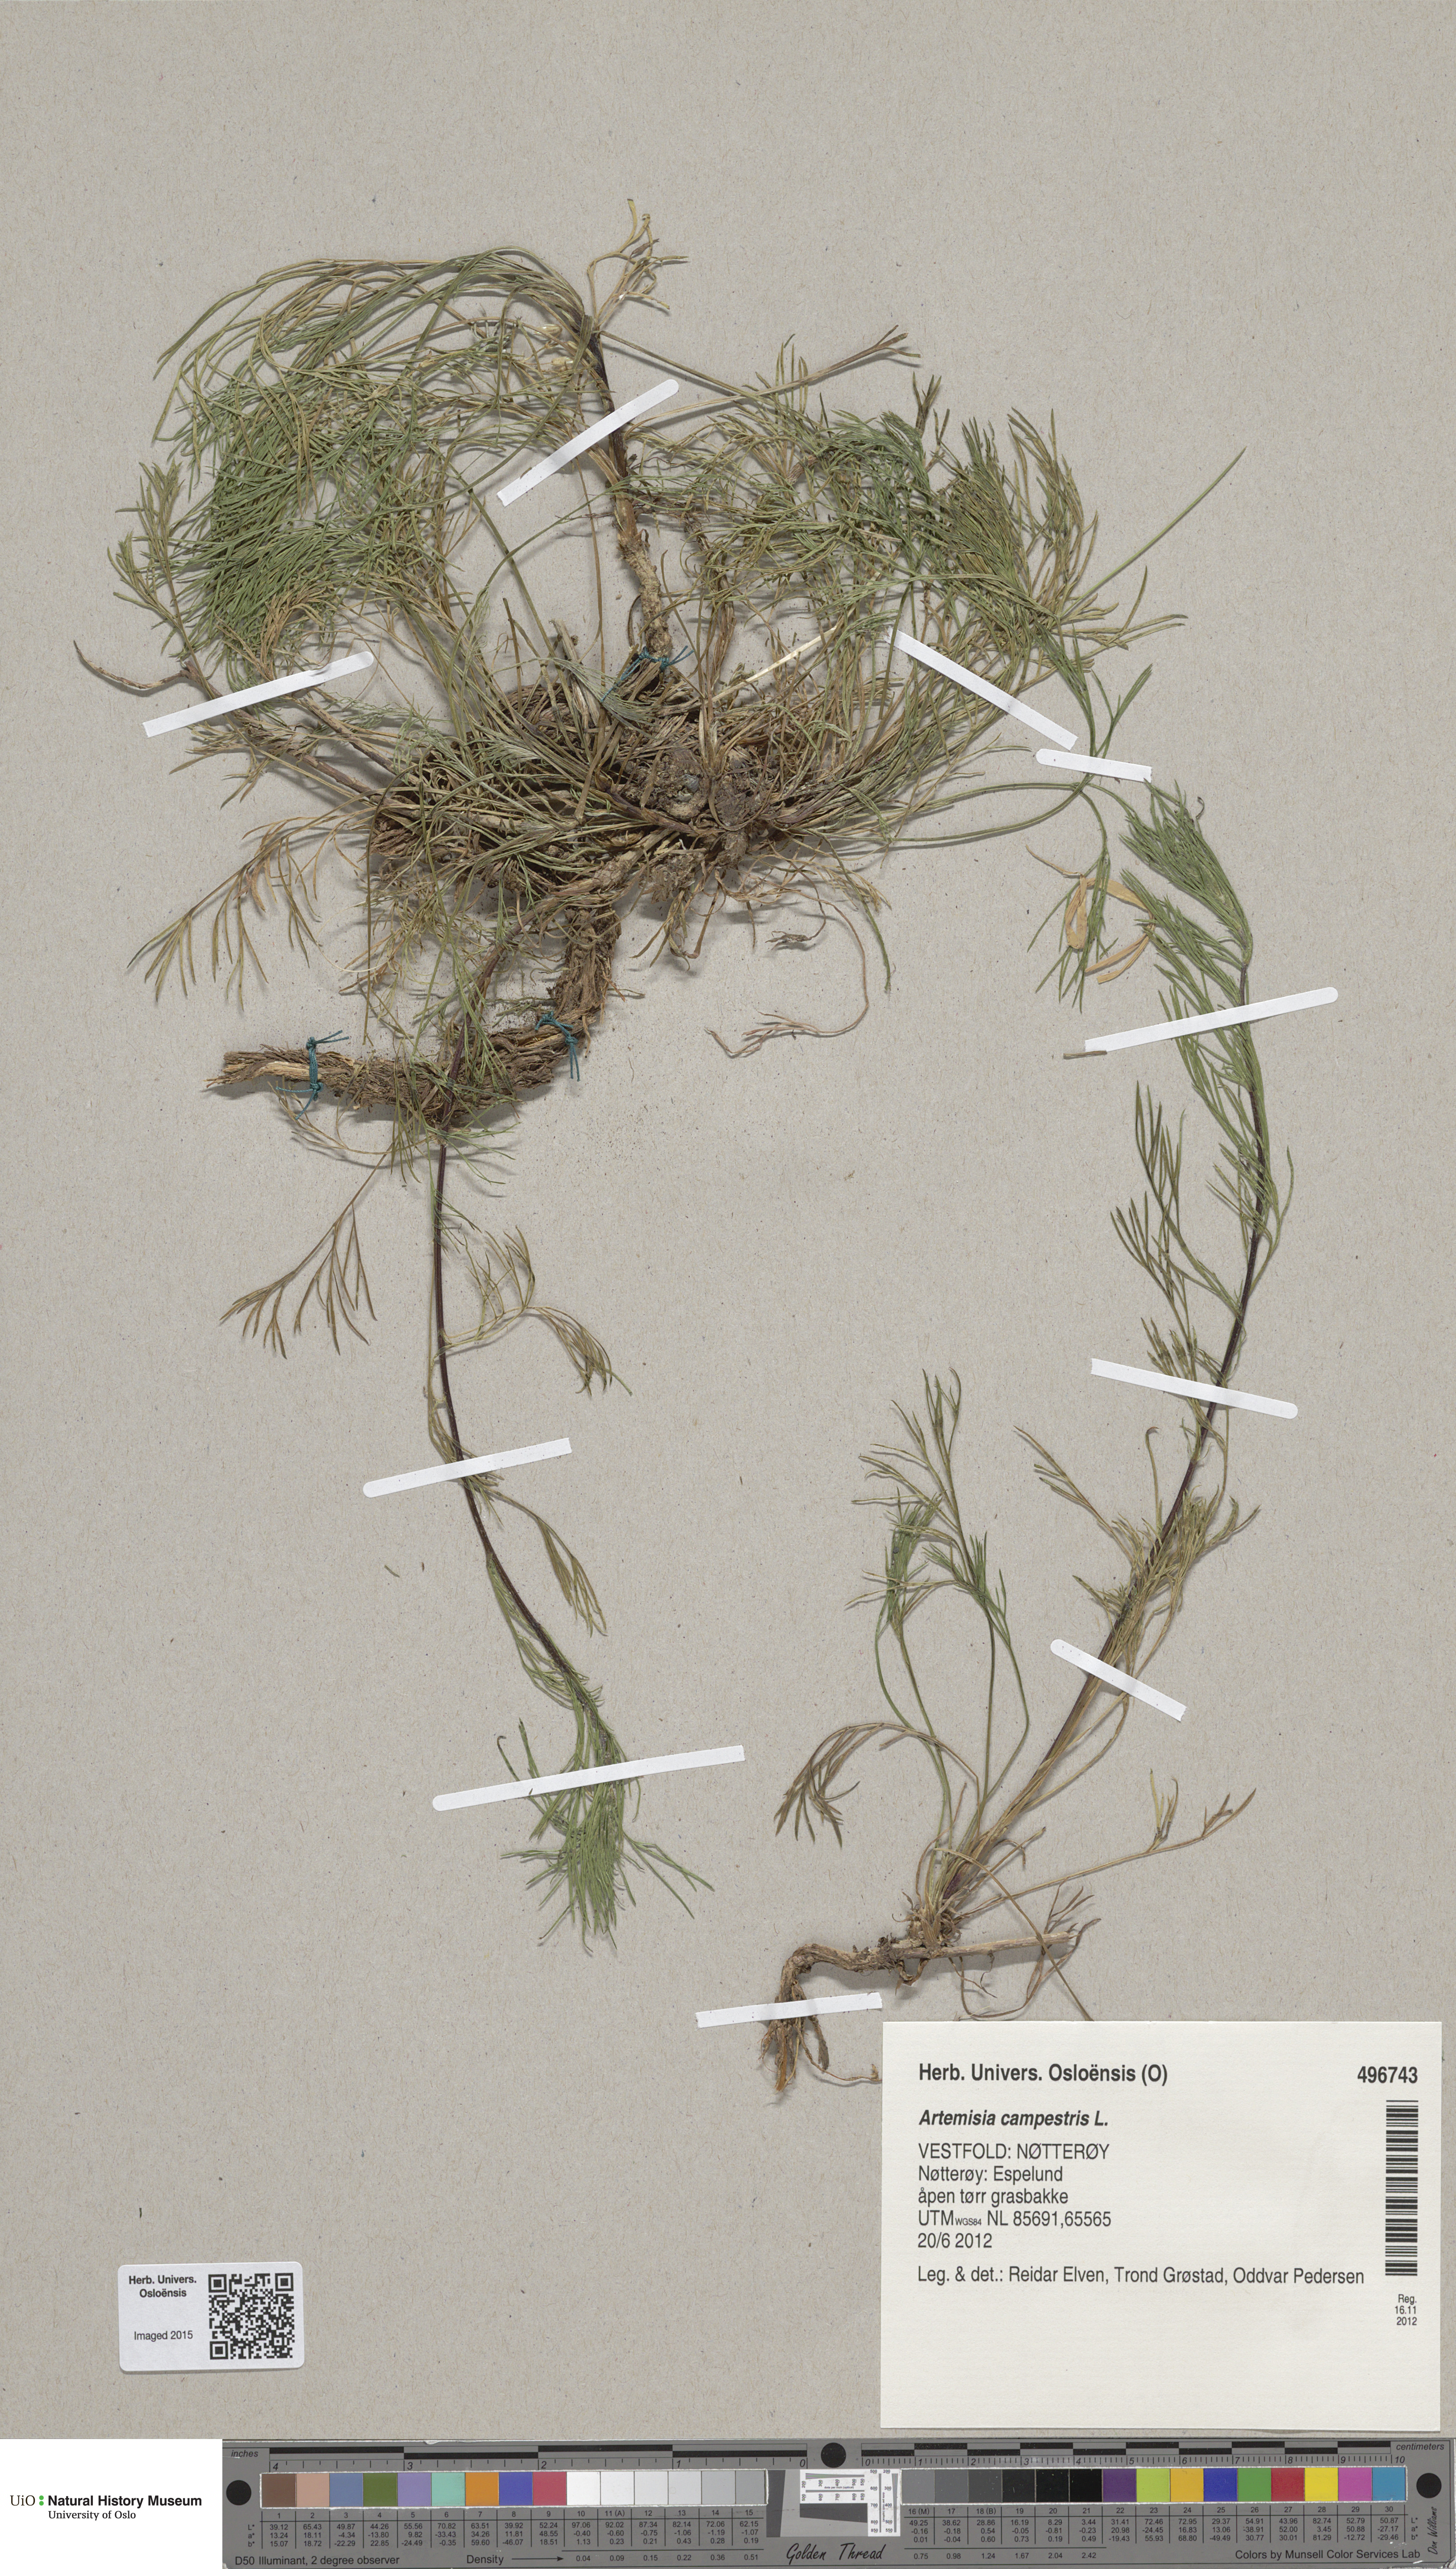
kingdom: Plantae
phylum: Tracheophyta
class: Magnoliopsida
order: Asterales
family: Asteraceae
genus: Artemisia
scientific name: Artemisia campestris
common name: Field wormwood
